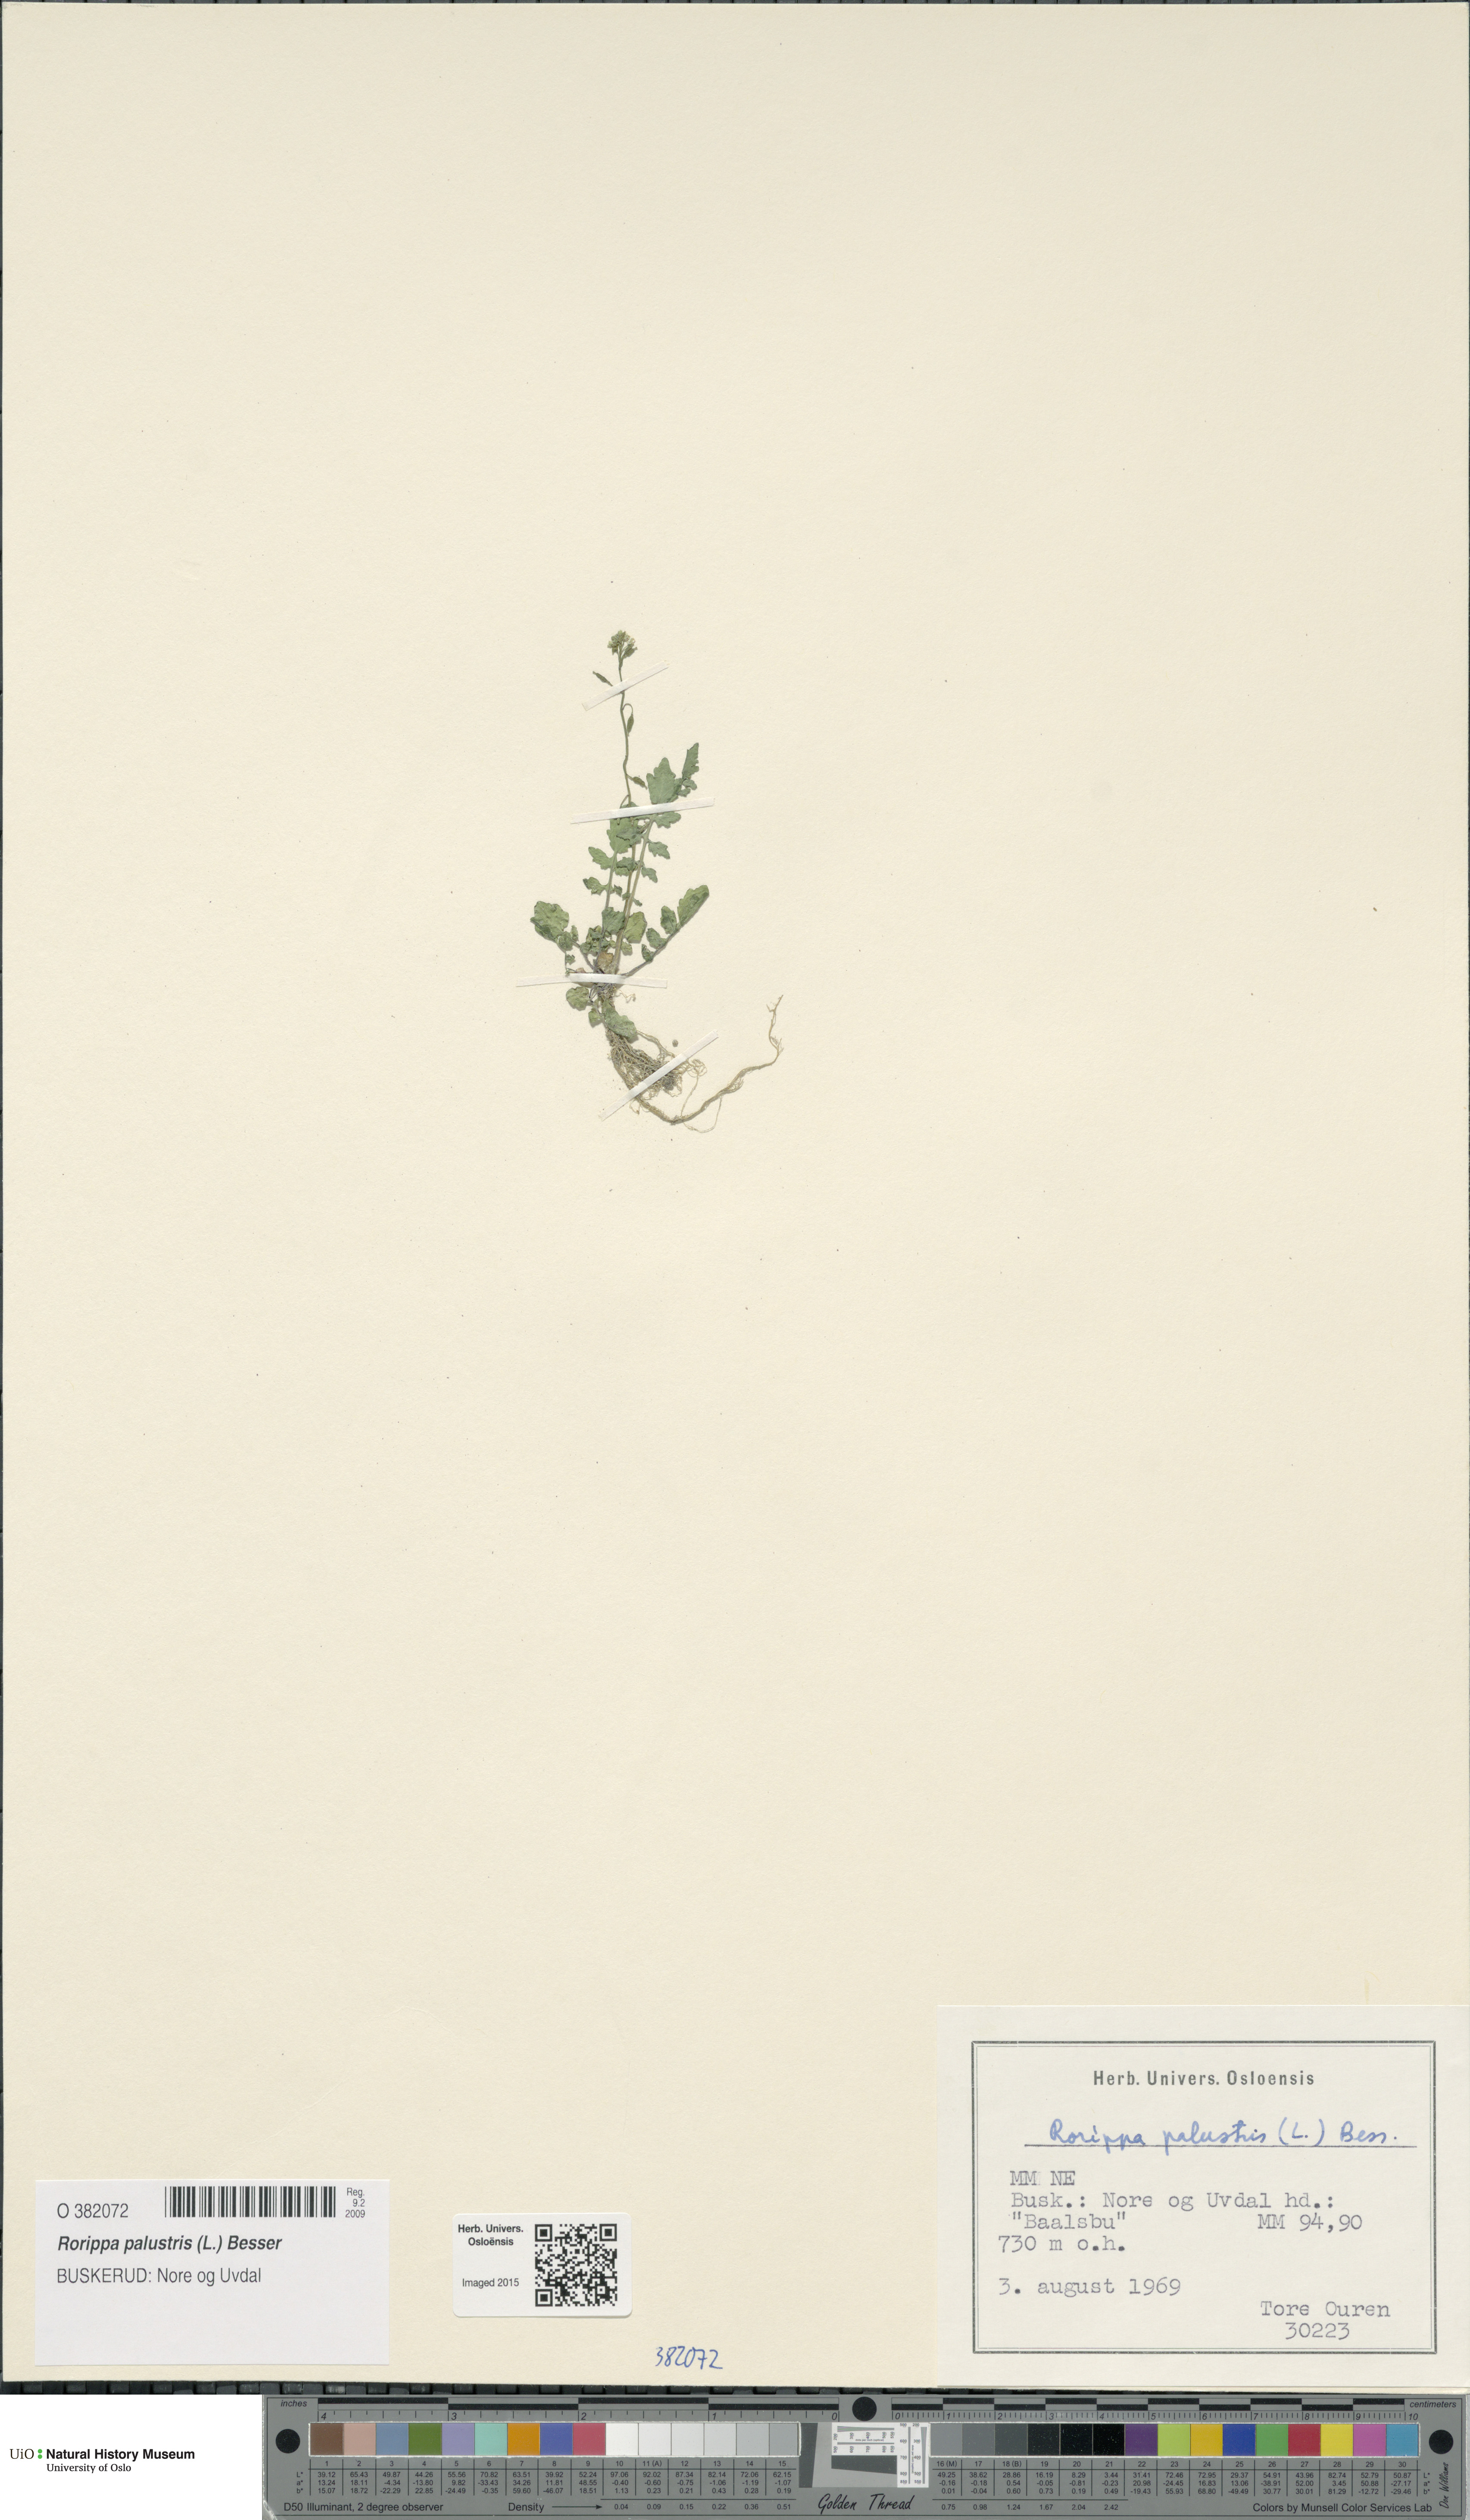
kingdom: Plantae
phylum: Tracheophyta
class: Magnoliopsida
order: Brassicales
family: Brassicaceae
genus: Rorippa
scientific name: Rorippa palustris
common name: Marsh yellow-cress
